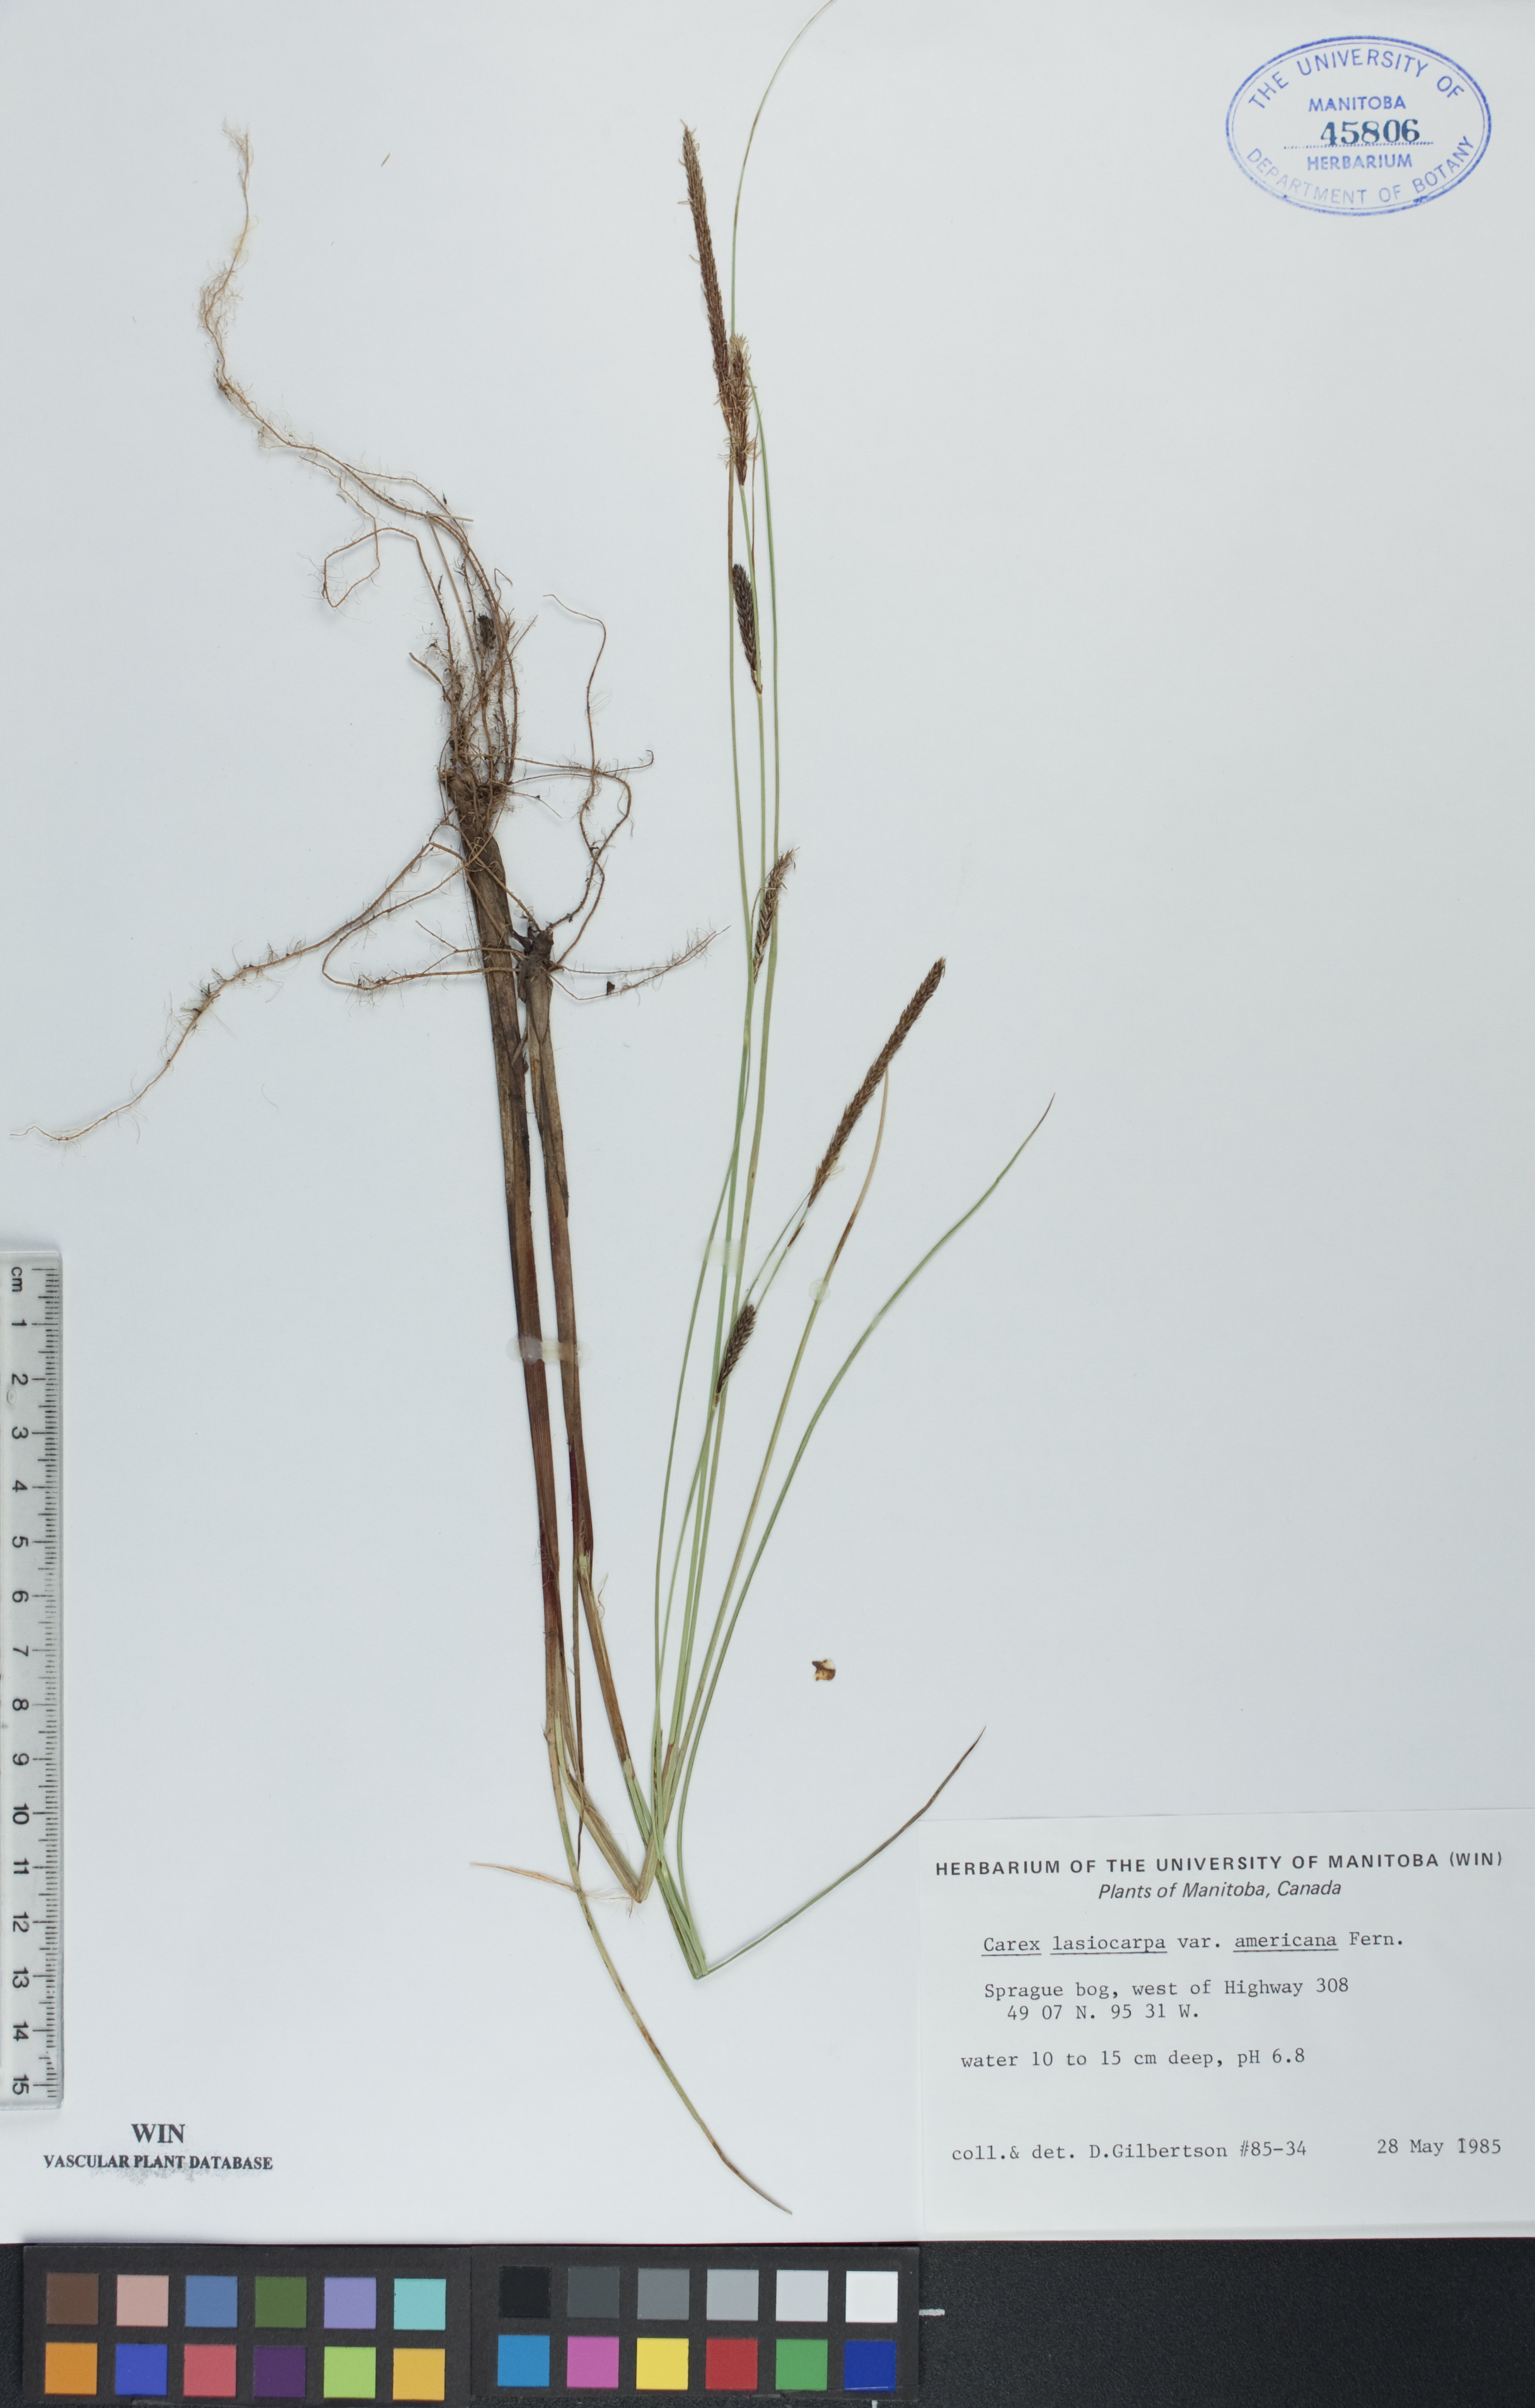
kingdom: Plantae
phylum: Tracheophyta
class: Liliopsida
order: Poales
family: Cyperaceae
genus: Carex
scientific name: Carex lasiocarpa
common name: Slender sedge
